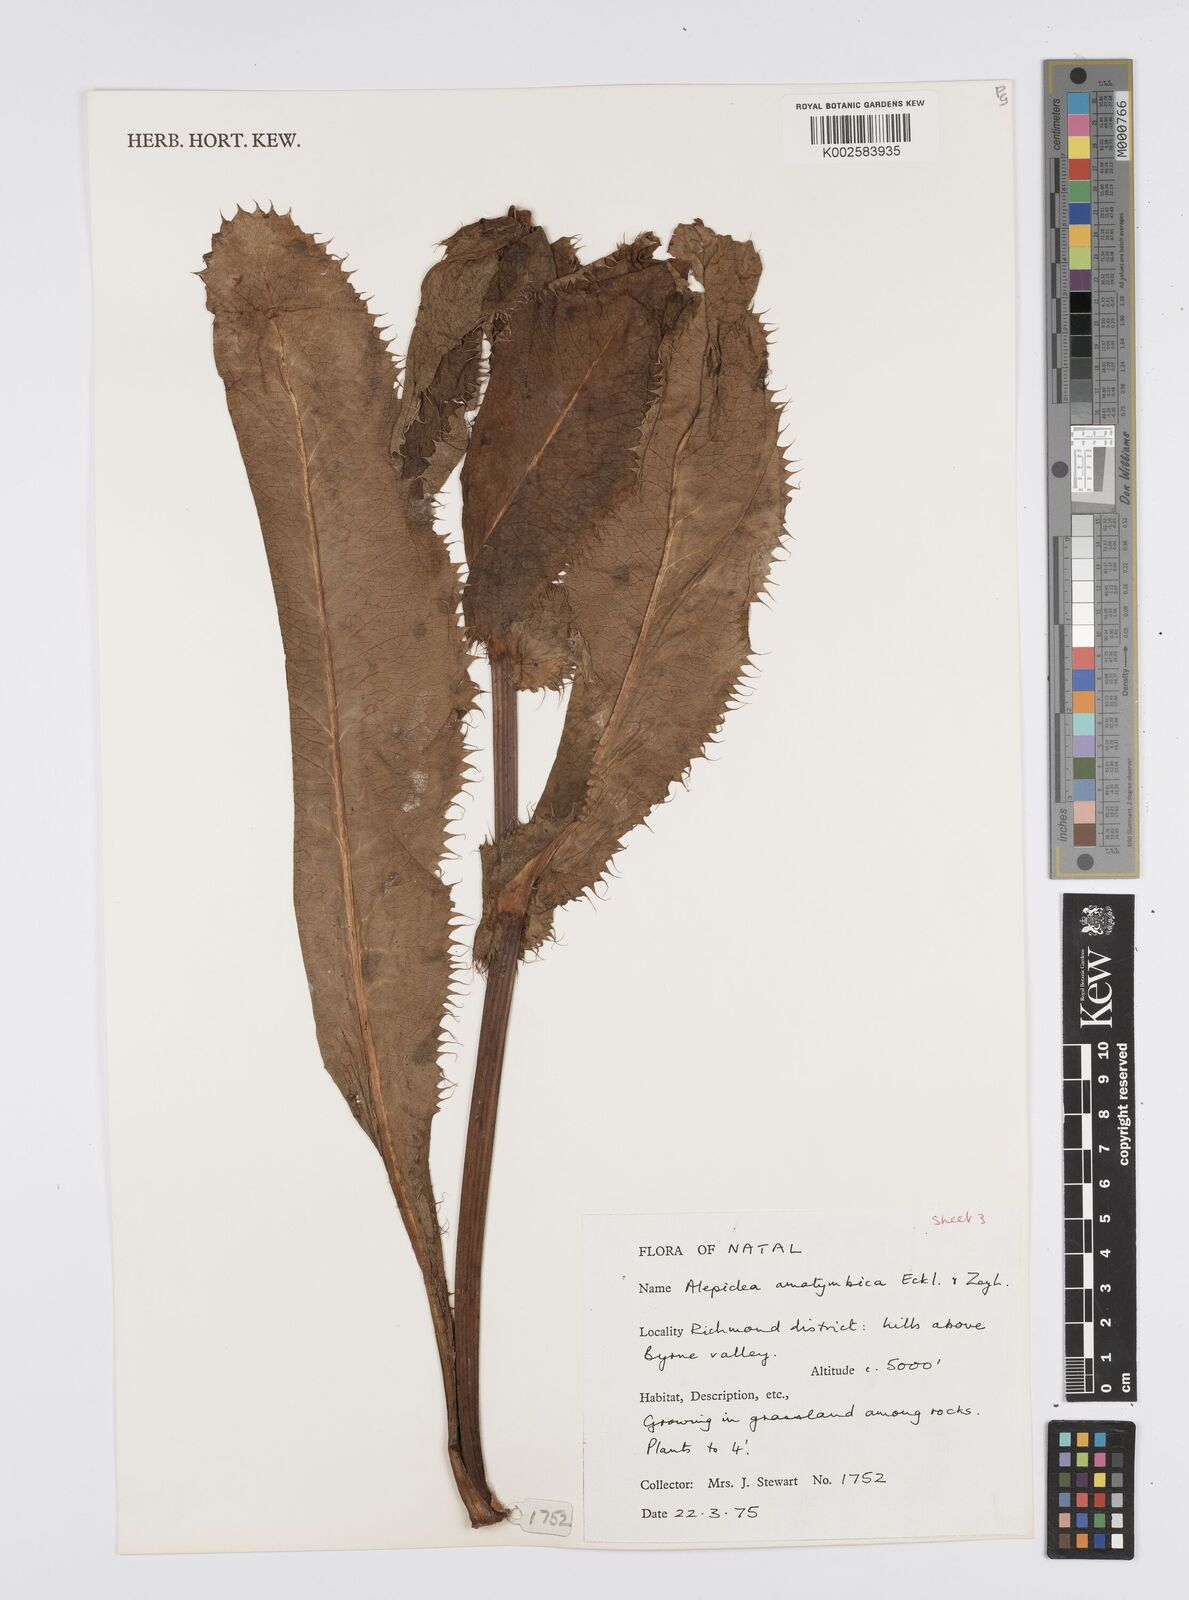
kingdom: Plantae
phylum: Tracheophyta
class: Magnoliopsida
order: Apiales
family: Apiaceae
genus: Alepidea
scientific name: Alepidea amatymbica
